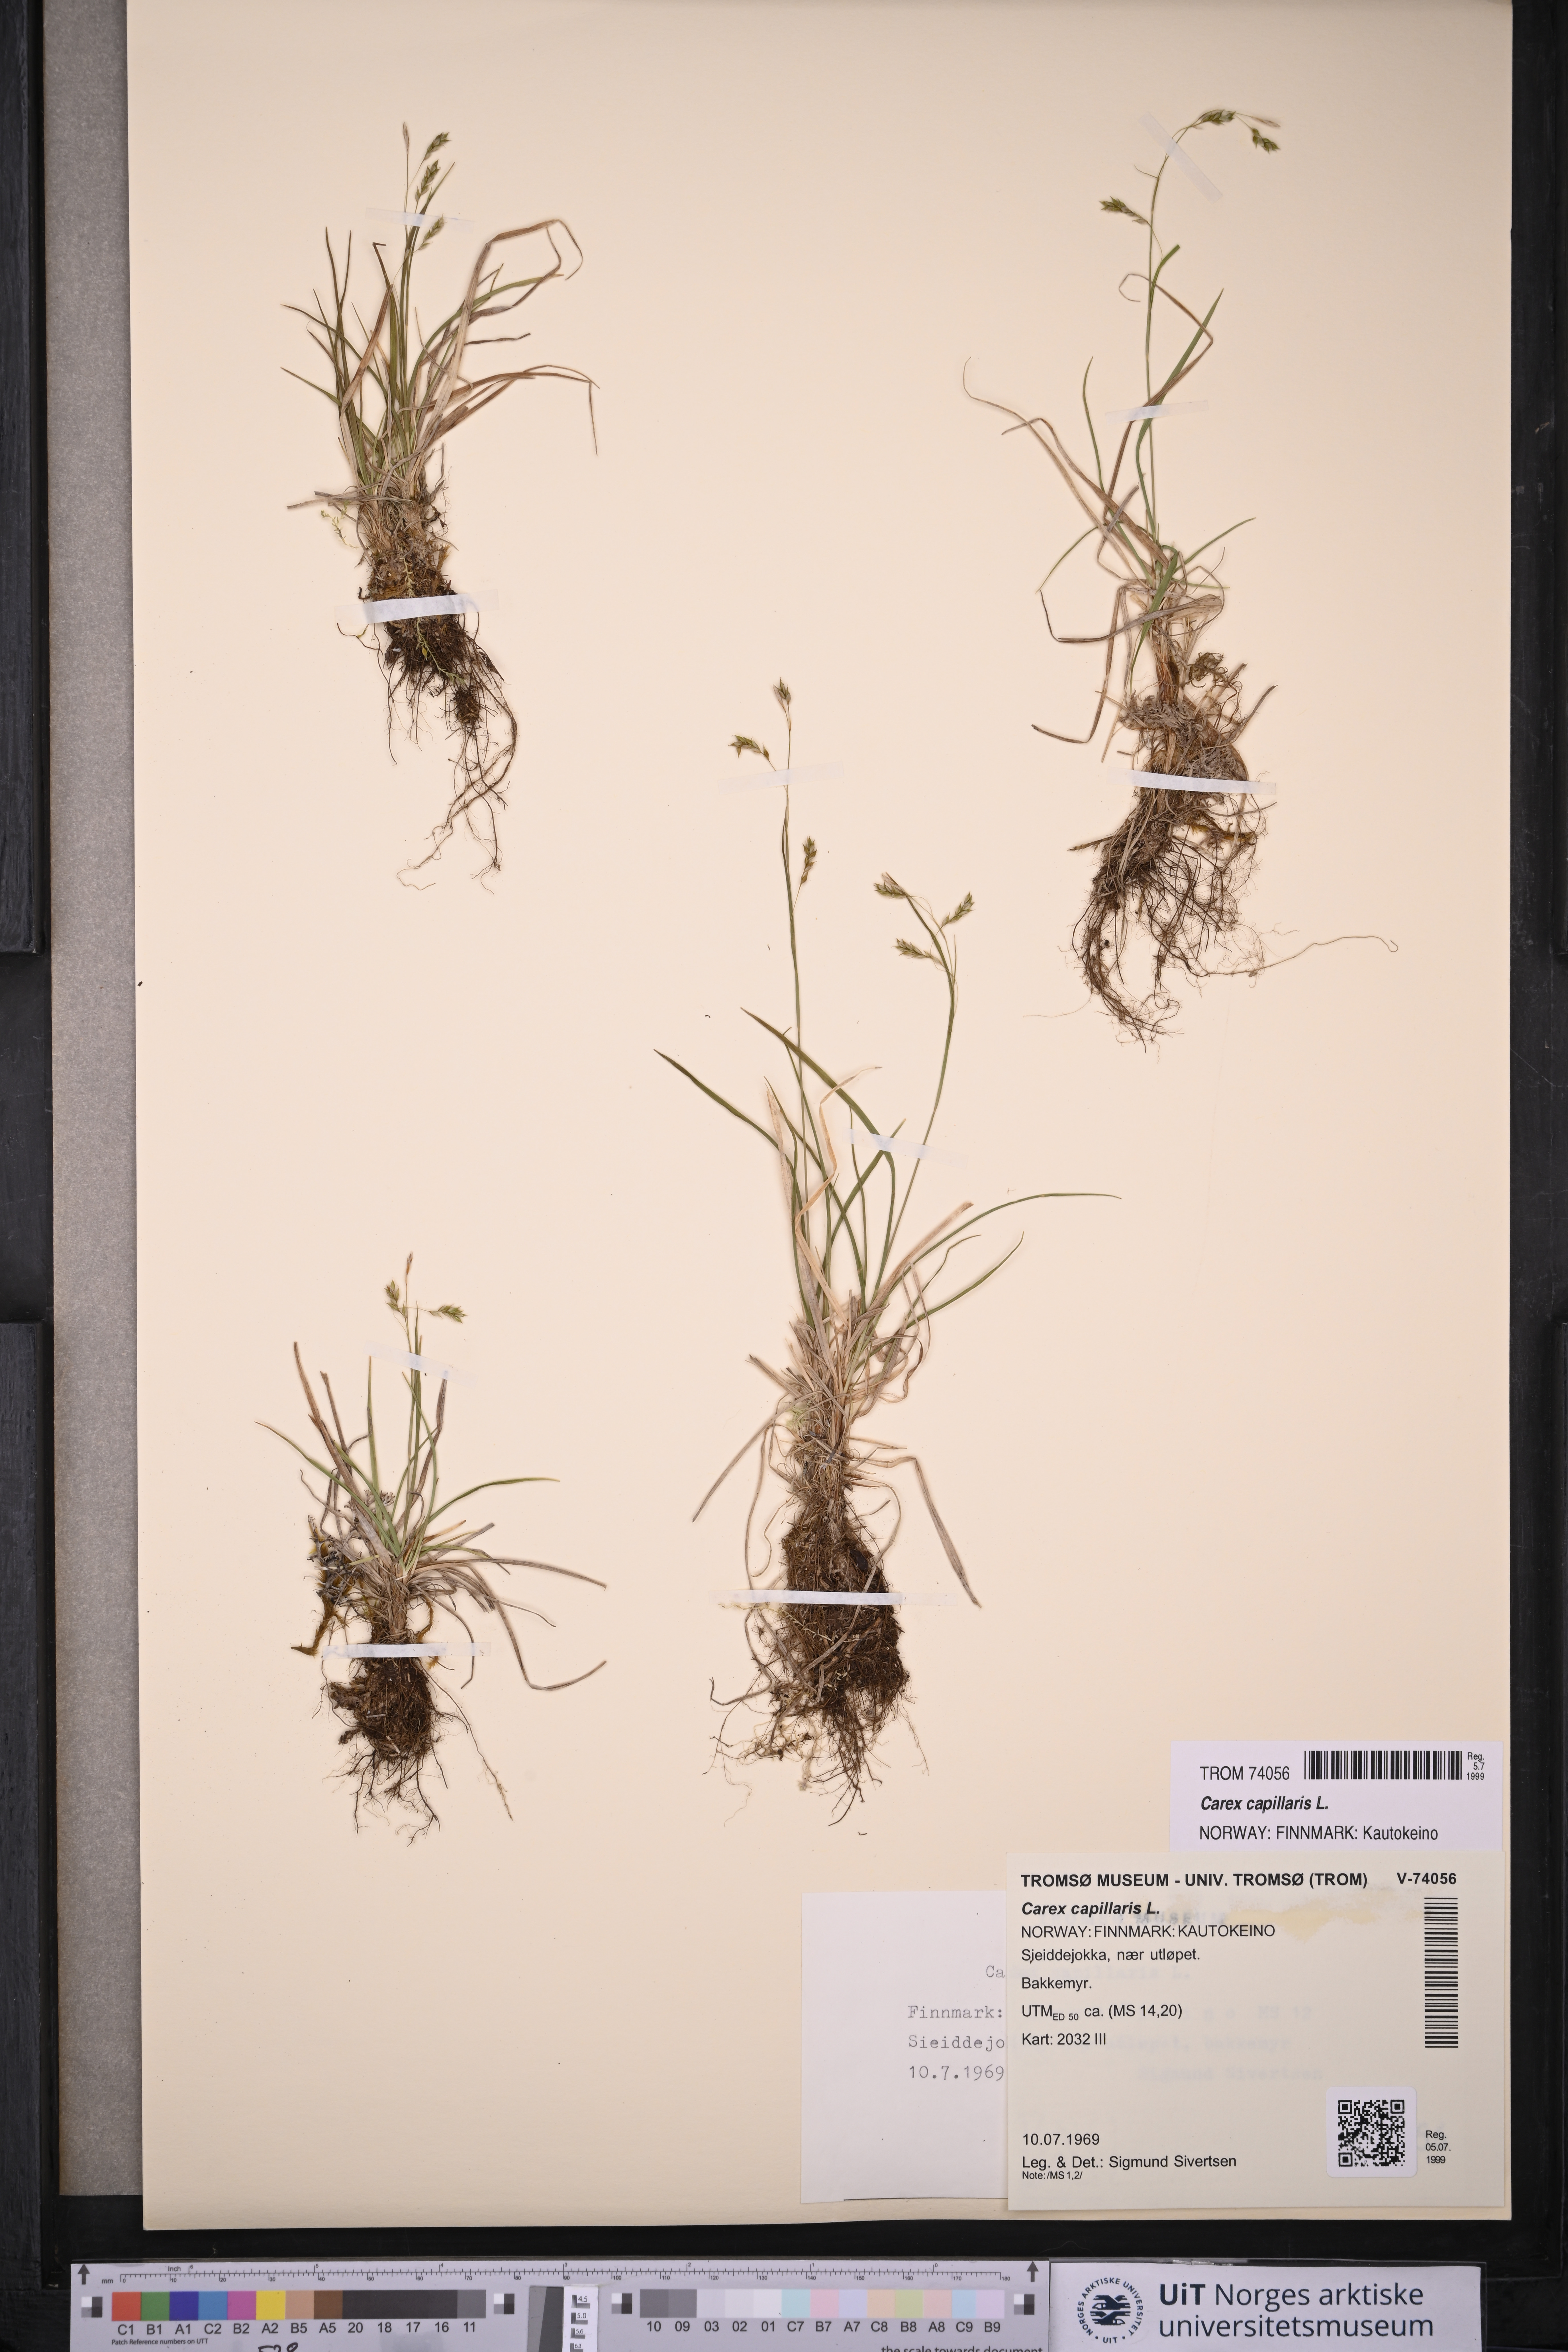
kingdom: Plantae
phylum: Tracheophyta
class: Liliopsida
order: Poales
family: Cyperaceae
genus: Carex
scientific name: Carex capillaris
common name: Hair sedge
